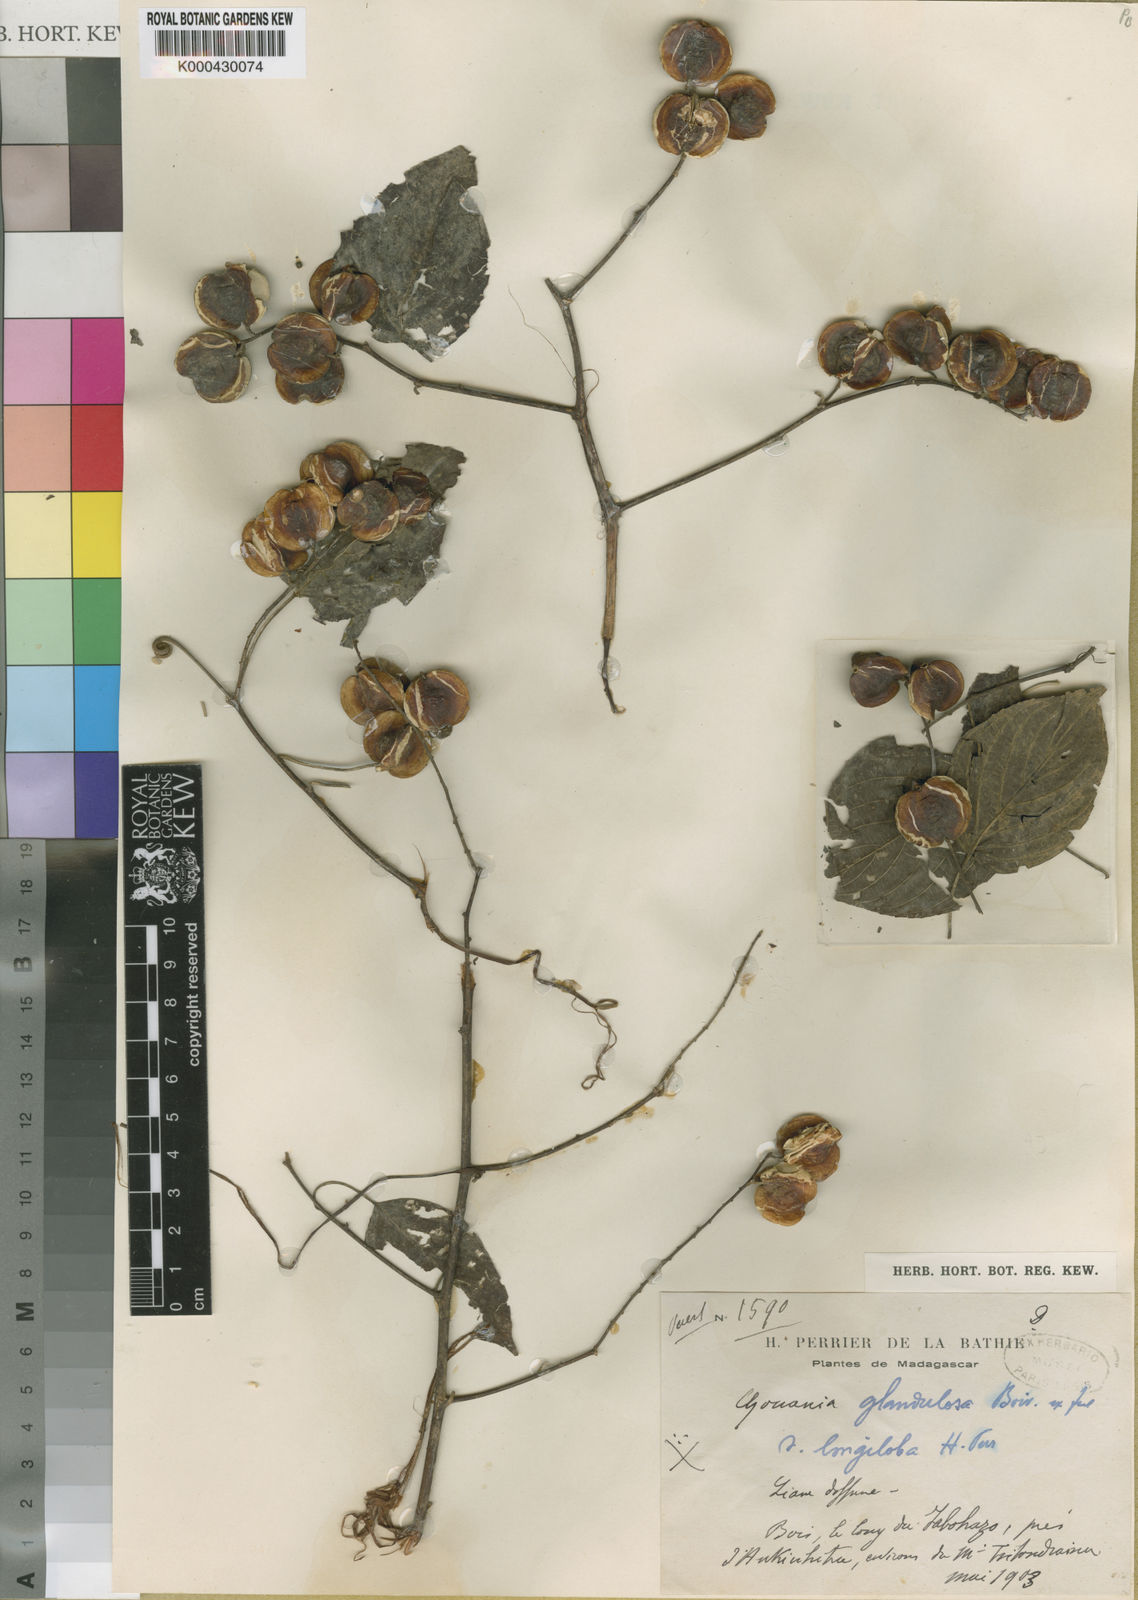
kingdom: Plantae
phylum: Tracheophyta
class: Magnoliopsida
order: Rosales
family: Rhamnaceae
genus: Gouania
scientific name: Gouania tiliifolia
